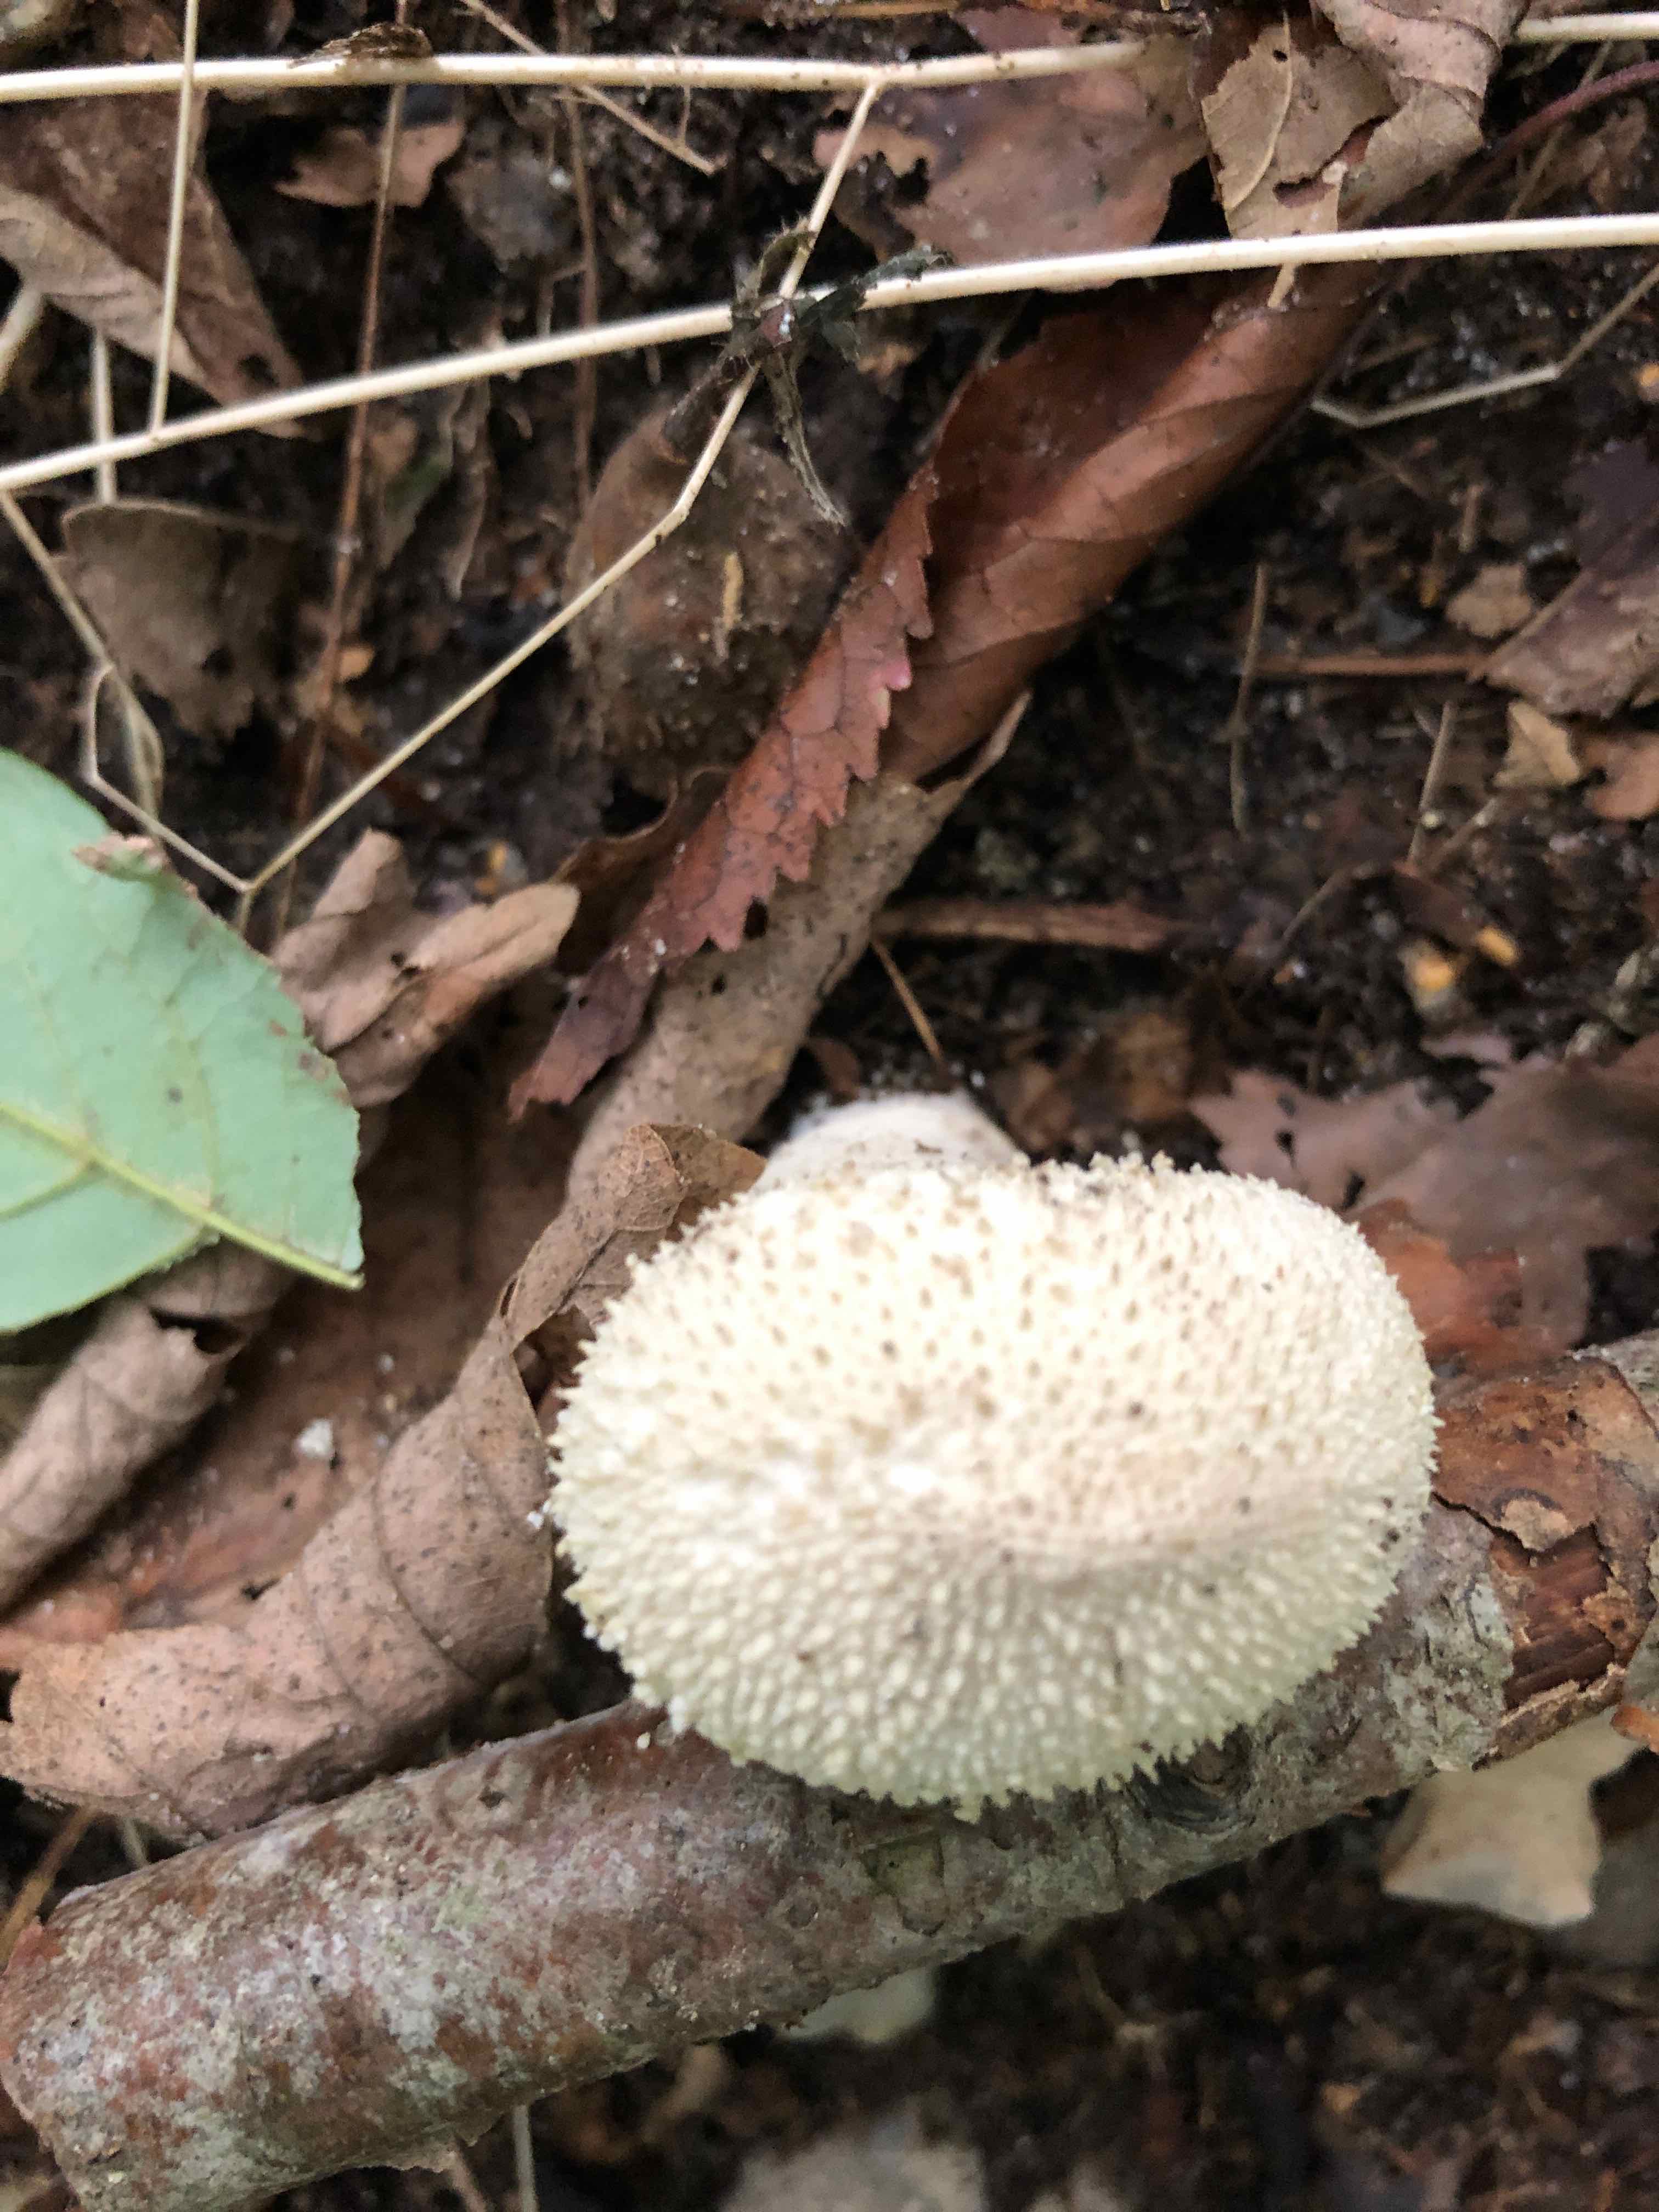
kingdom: Fungi
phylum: Basidiomycota
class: Agaricomycetes
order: Agaricales
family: Lycoperdaceae
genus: Lycoperdon
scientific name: Lycoperdon perlatum
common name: krystal-støvbold
